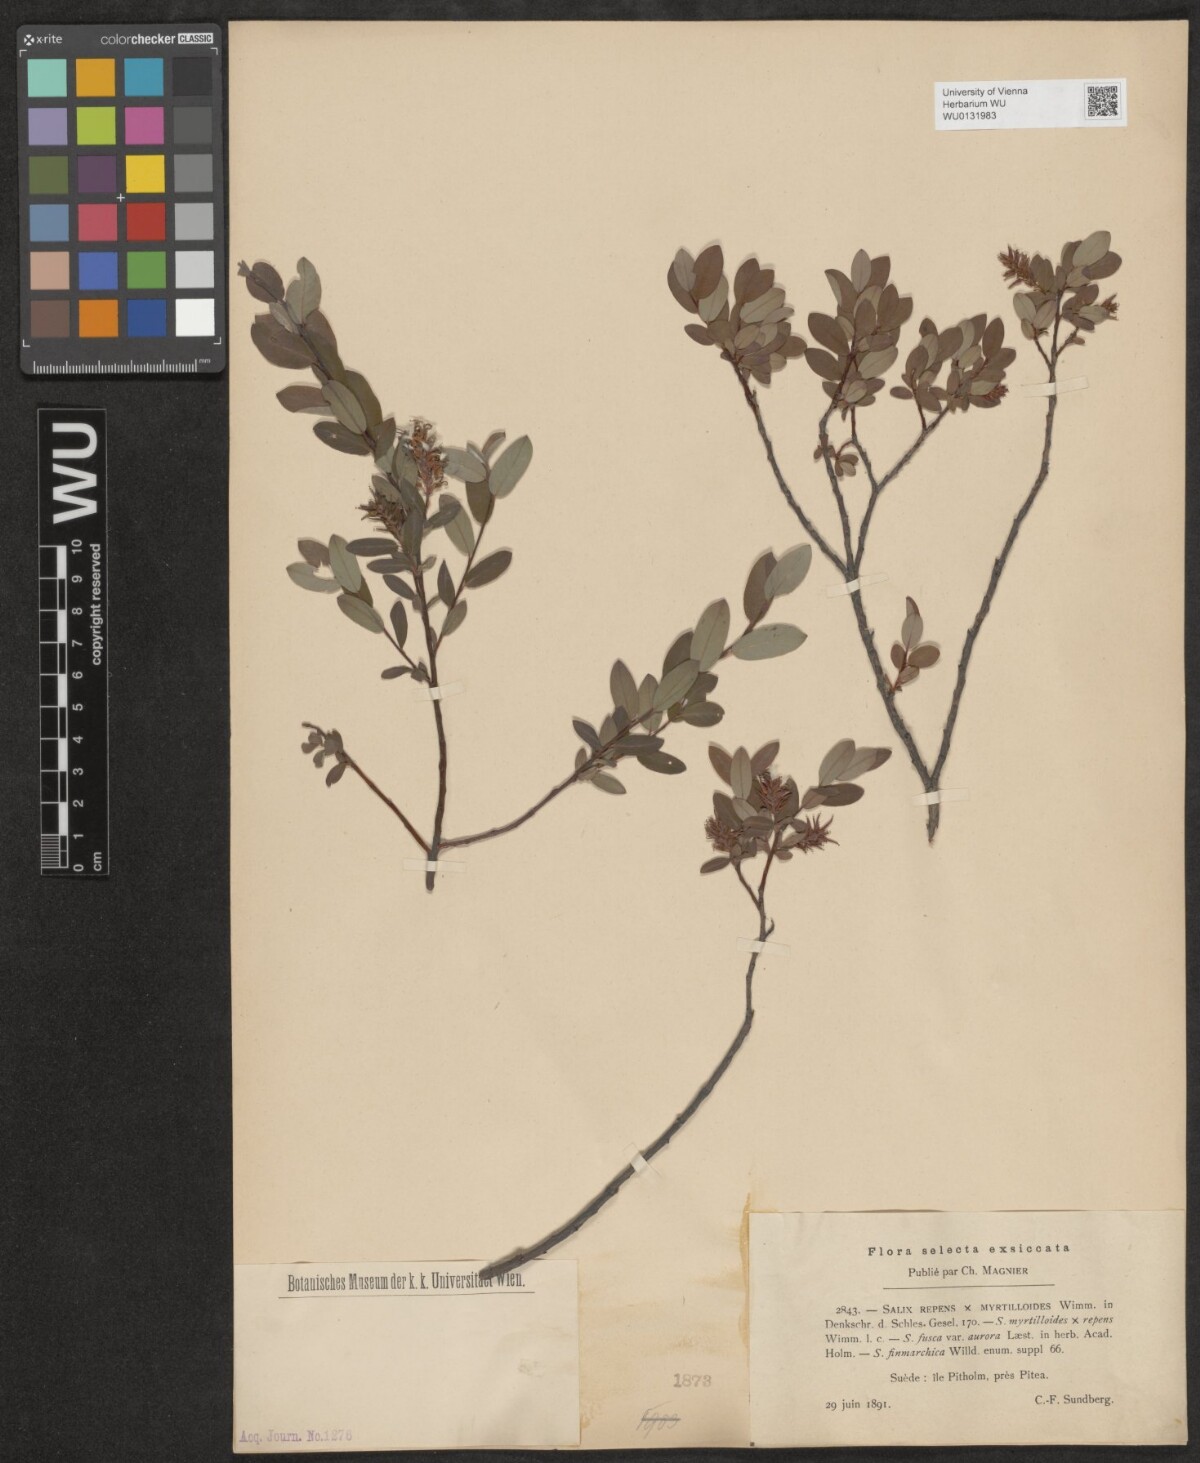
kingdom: Plantae
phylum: Tracheophyta
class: Magnoliopsida
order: Malpighiales
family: Salicaceae
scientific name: Salicaceae
